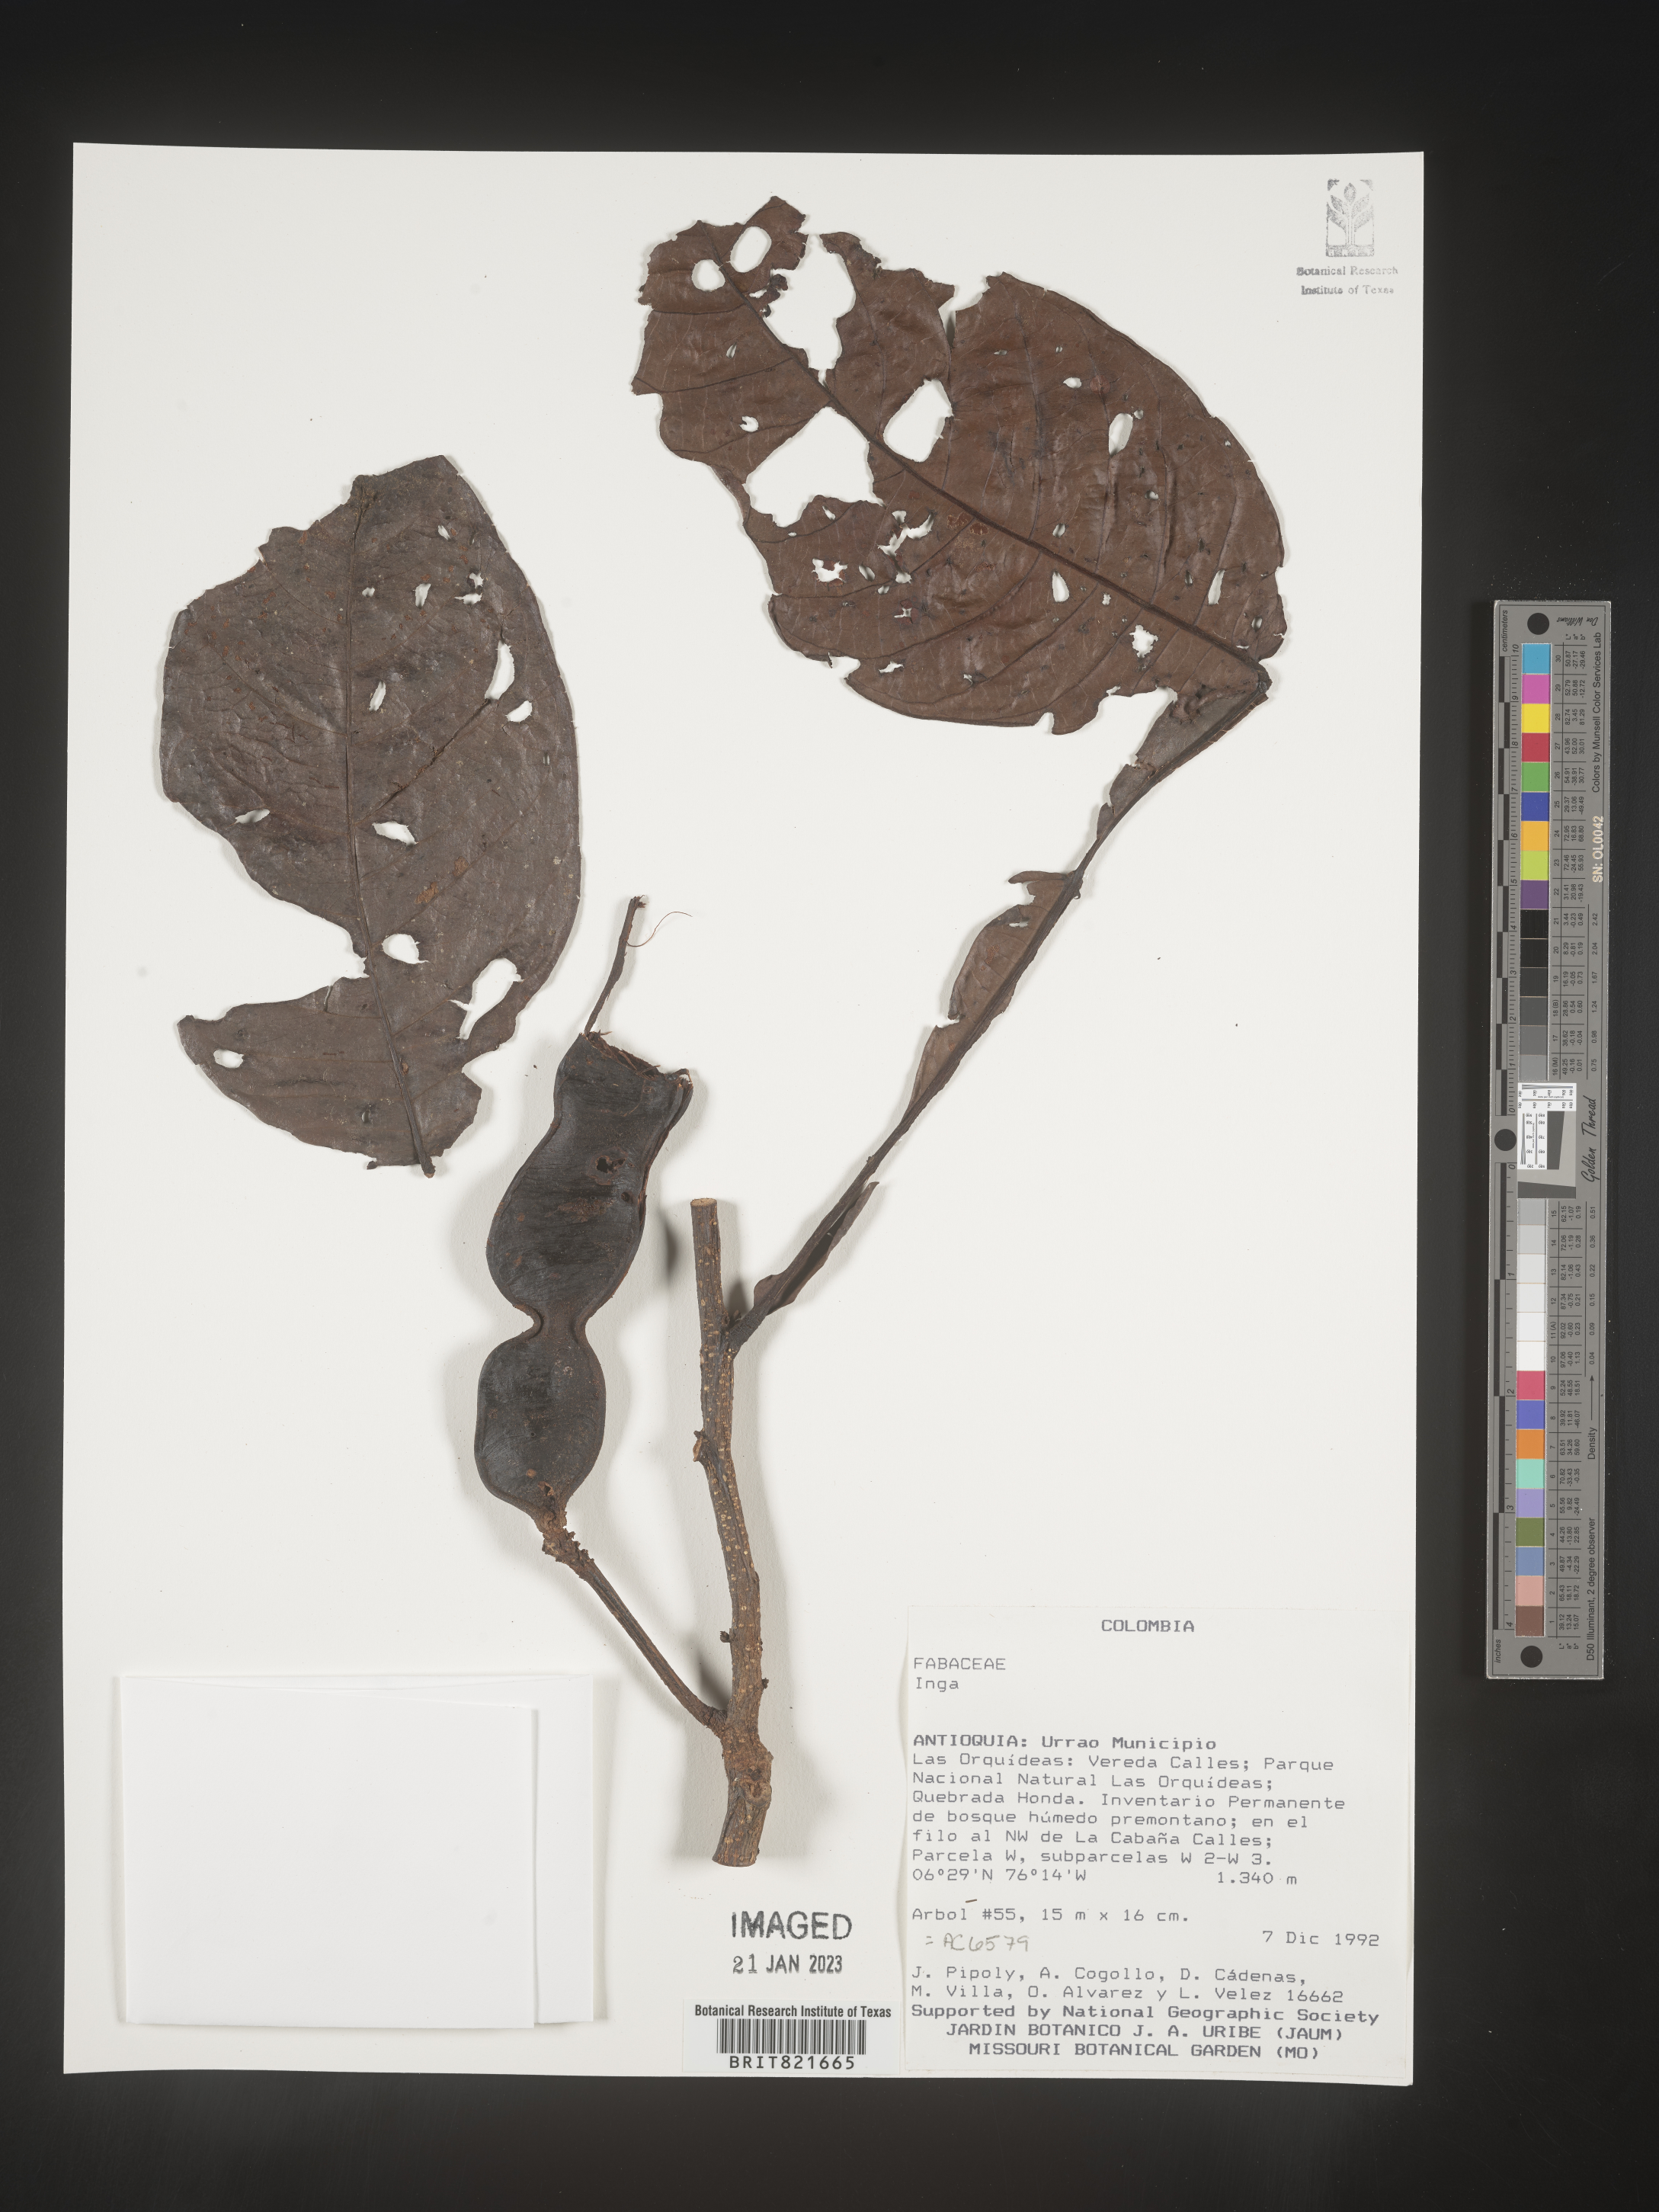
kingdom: Plantae
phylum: Tracheophyta
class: Magnoliopsida
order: Fabales
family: Fabaceae
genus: Inga
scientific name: Inga
